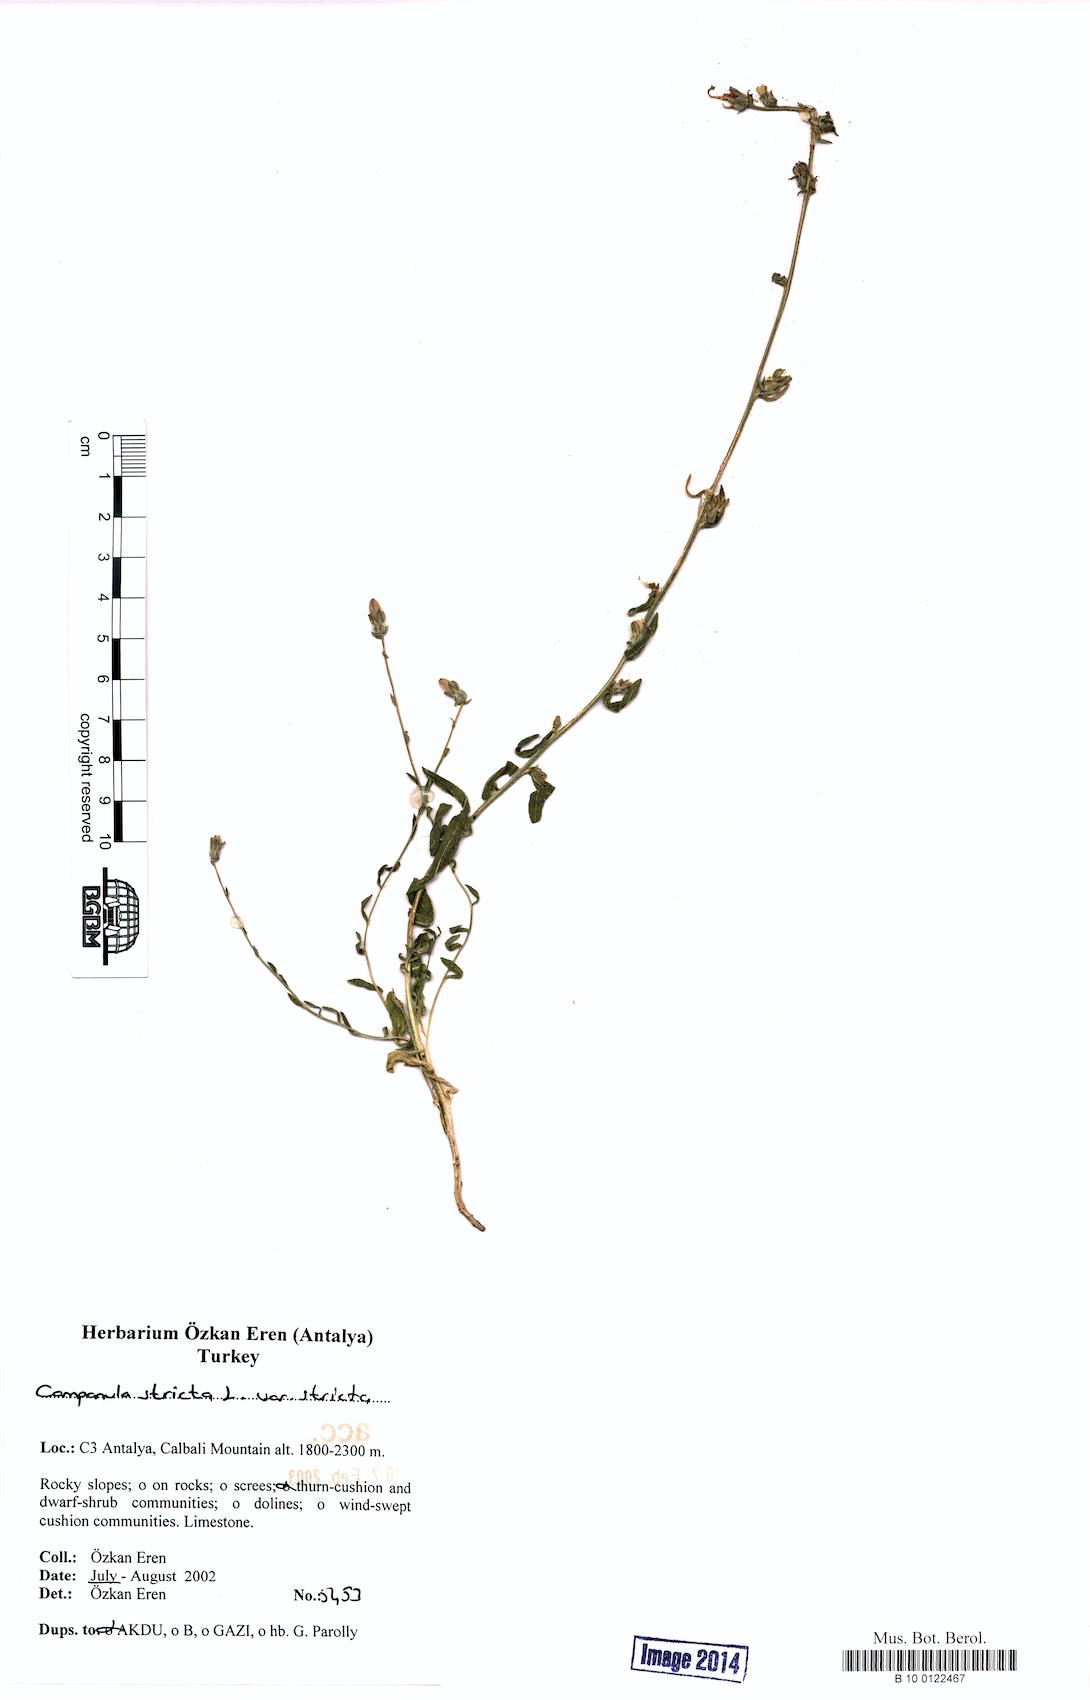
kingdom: Plantae
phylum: Tracheophyta
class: Magnoliopsida
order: Asterales
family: Campanulaceae
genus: Campanula
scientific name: Campanula stricta
